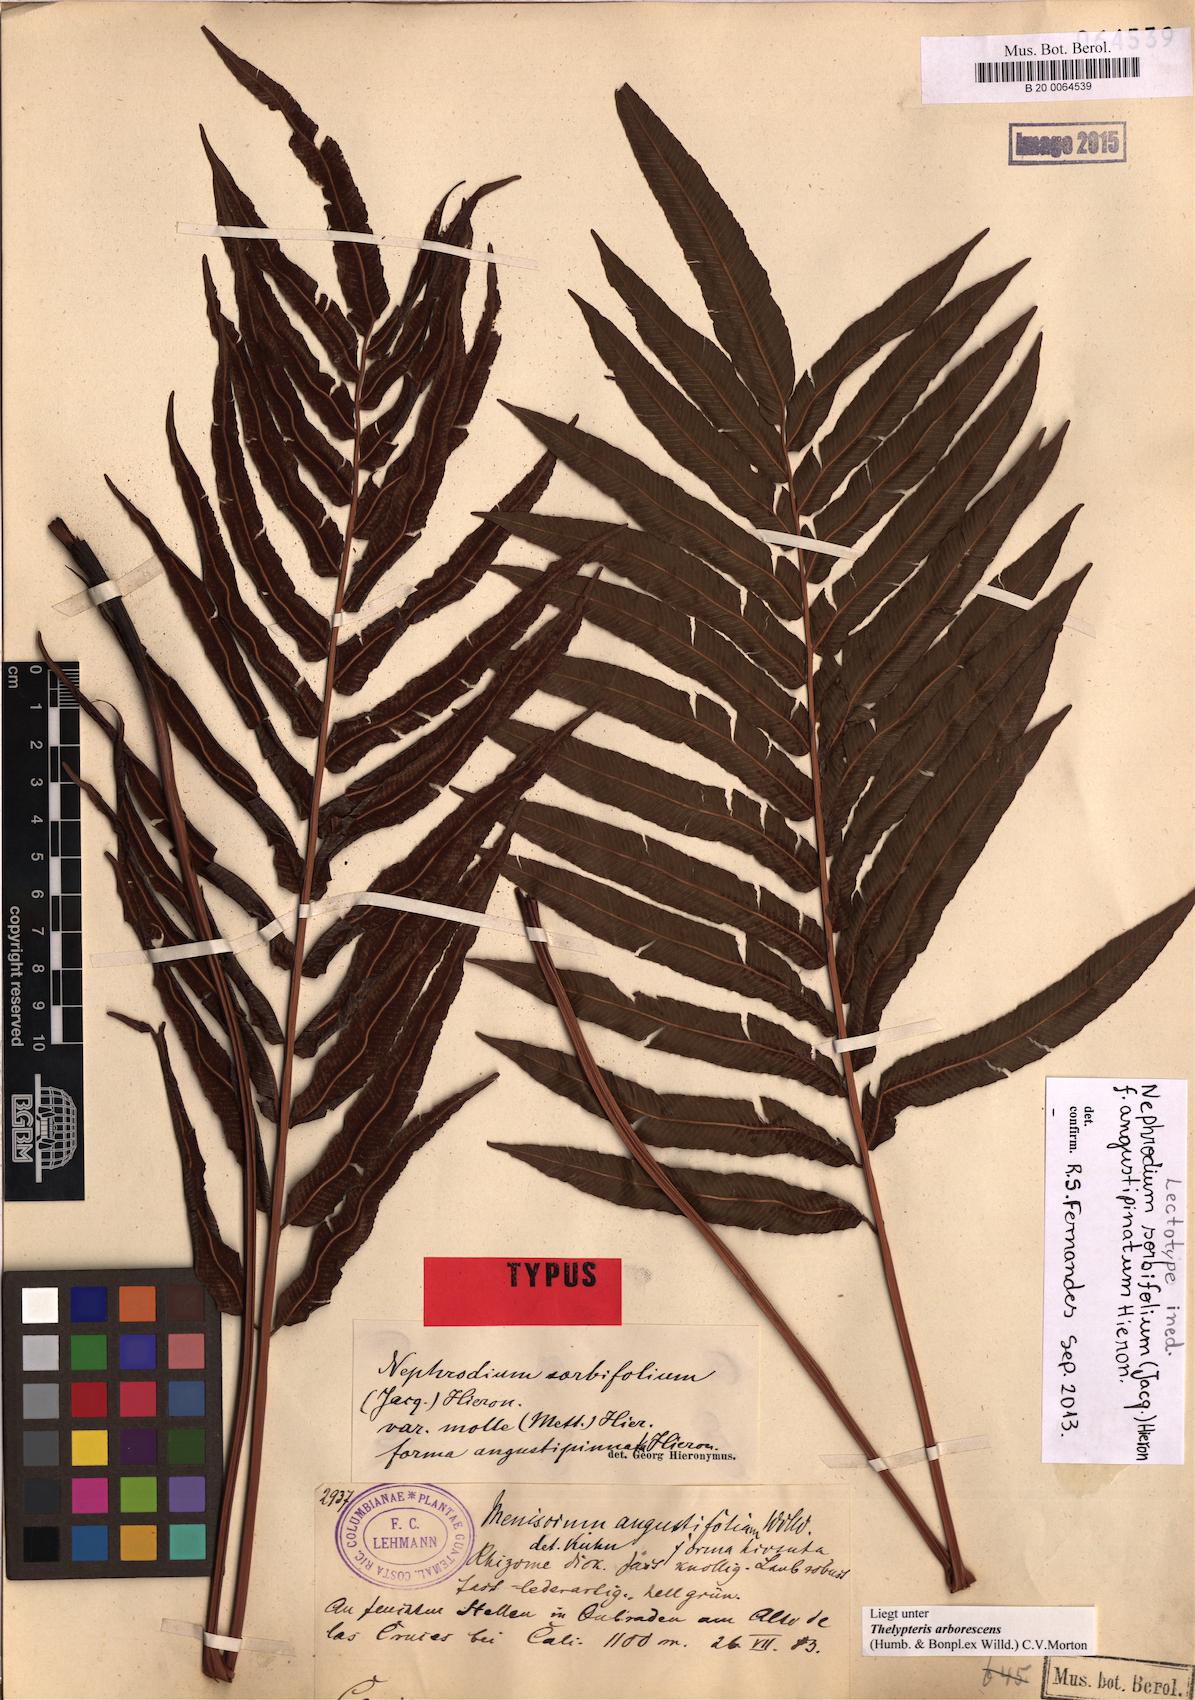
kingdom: Plantae
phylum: Tracheophyta
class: Polypodiopsida
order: Polypodiales
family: Thelypteridaceae
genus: Meniscium
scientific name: Meniscium arborescens
